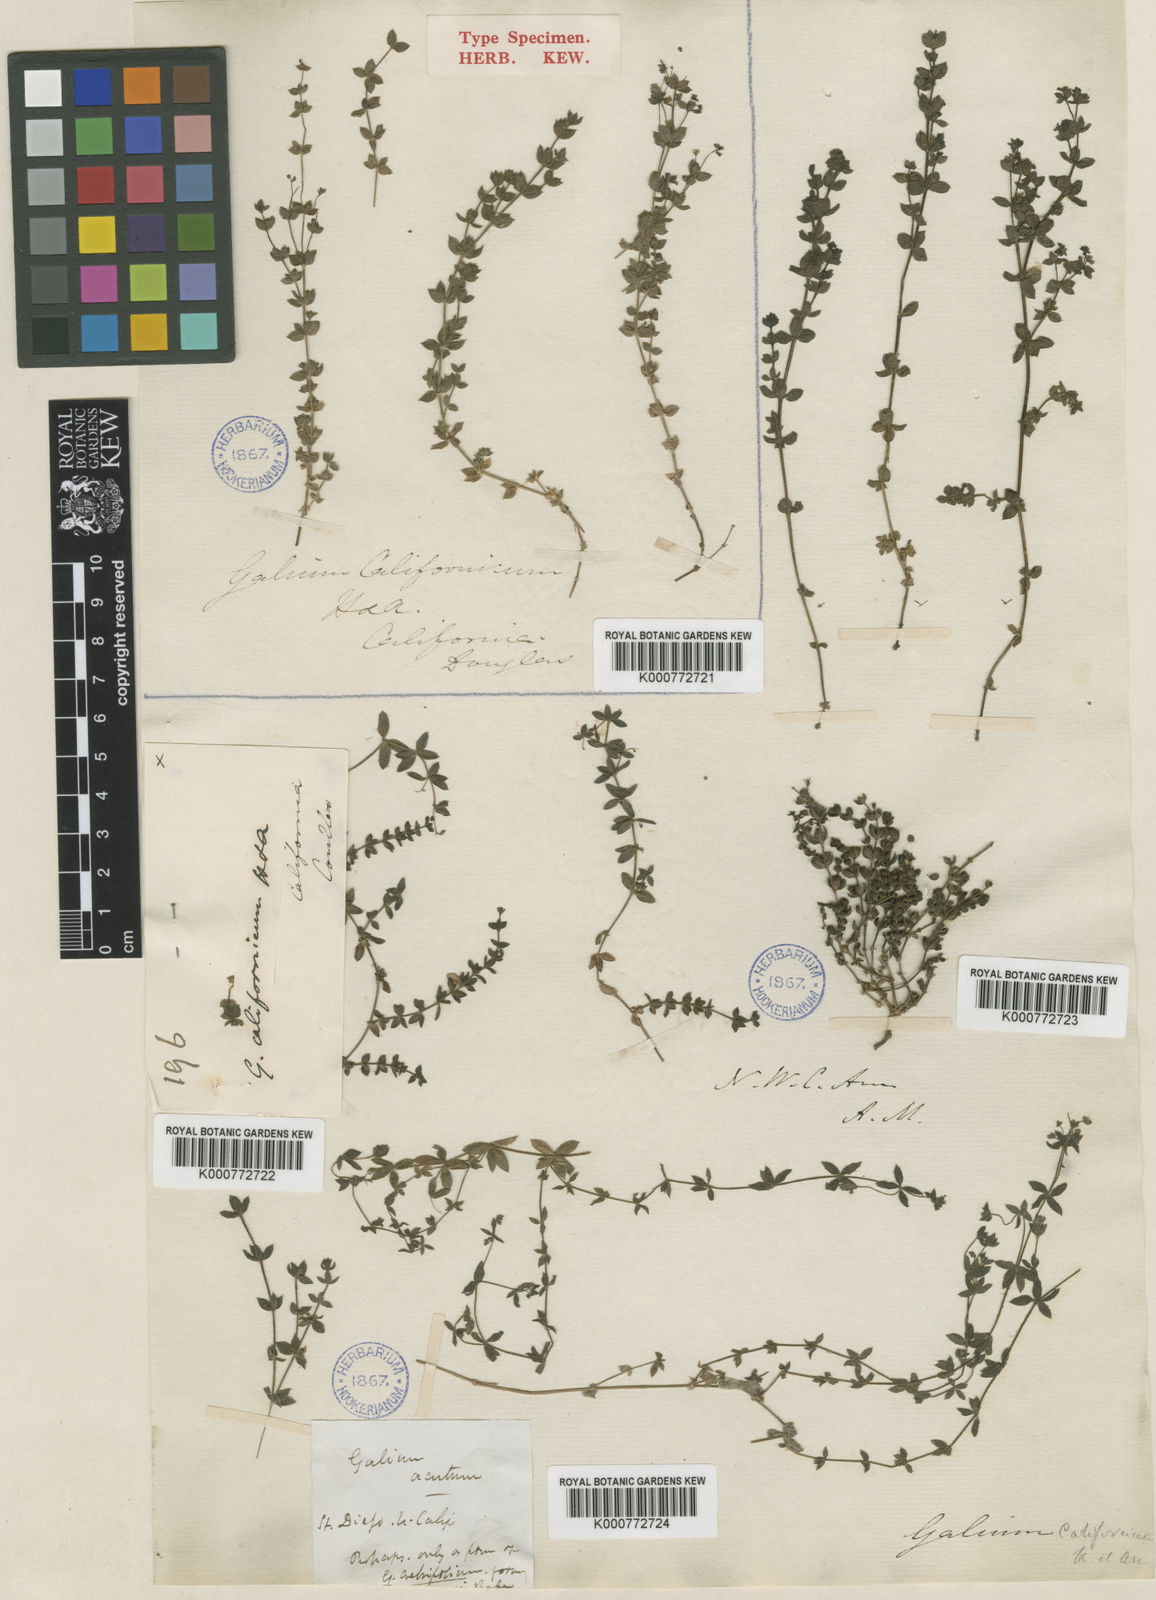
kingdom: Plantae
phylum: Tracheophyta
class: Magnoliopsida
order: Gentianales
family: Rubiaceae
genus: Galium
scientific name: Galium californicum
